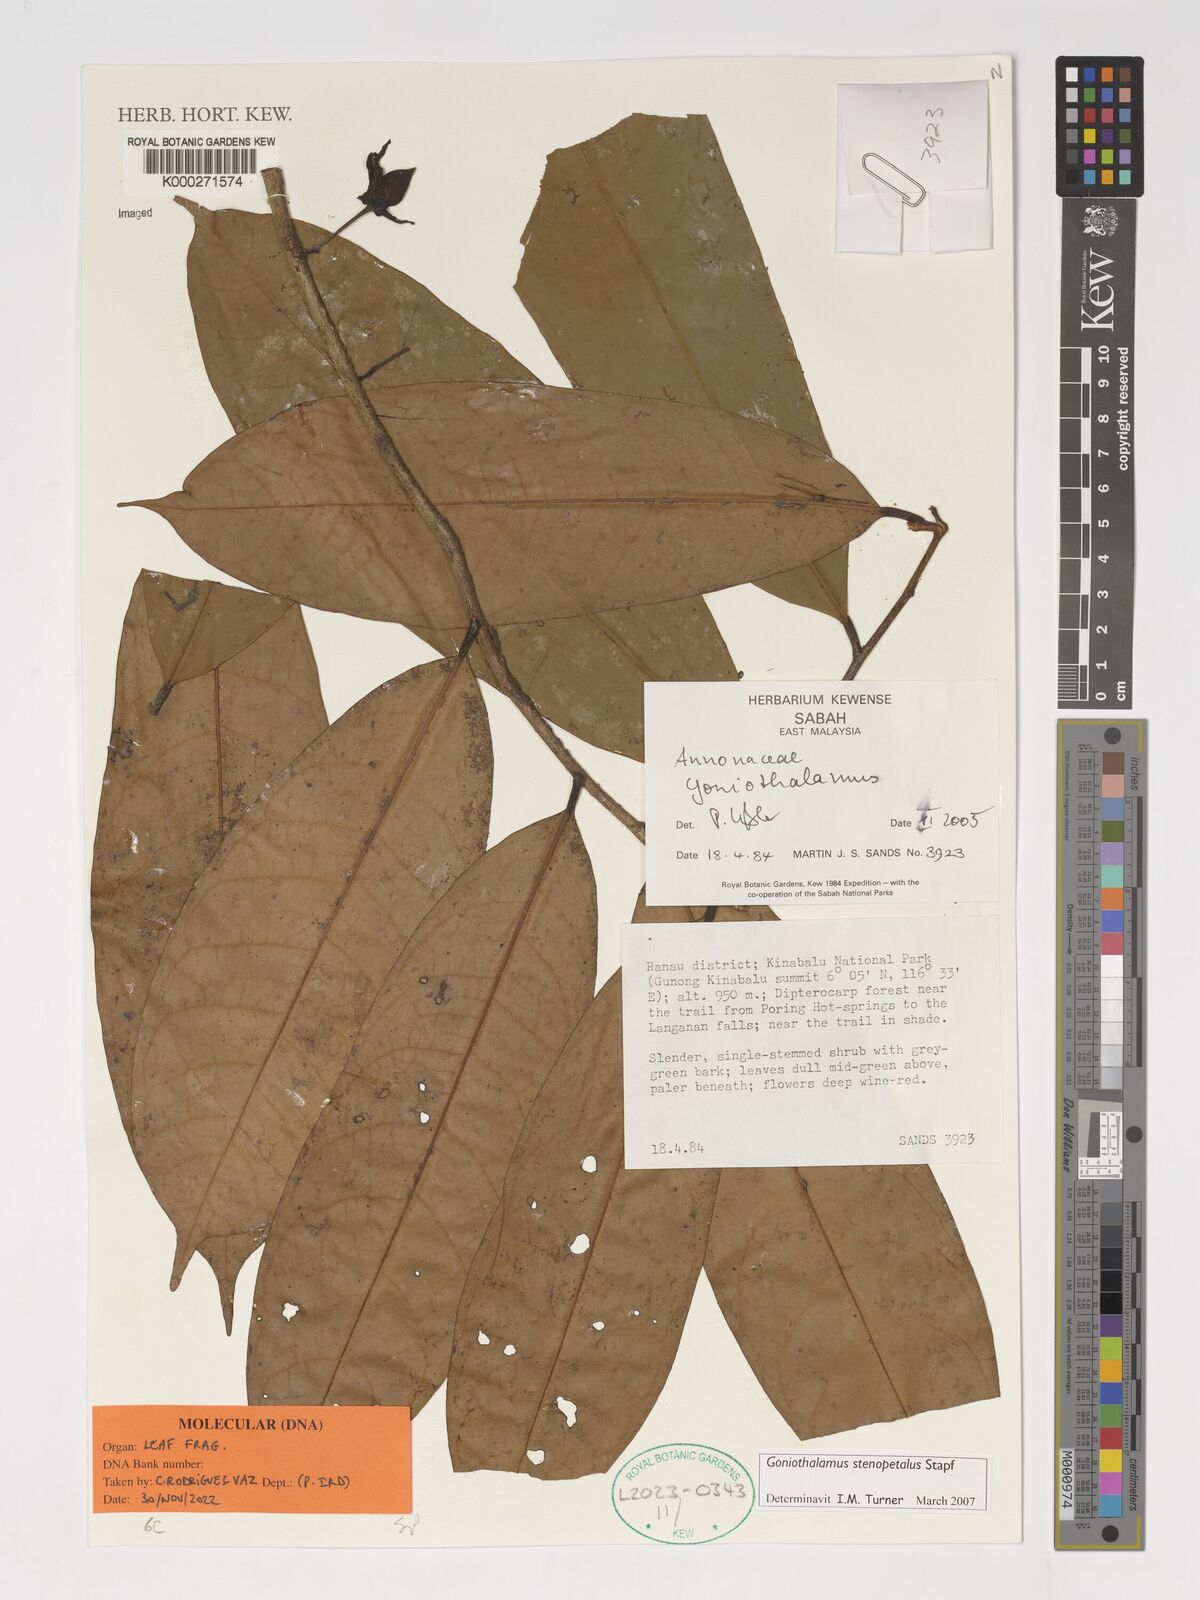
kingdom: Plantae
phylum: Tracheophyta
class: Magnoliopsida
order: Magnoliales
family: Annonaceae
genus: Goniothalamus
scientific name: Goniothalamus stenopetalus
